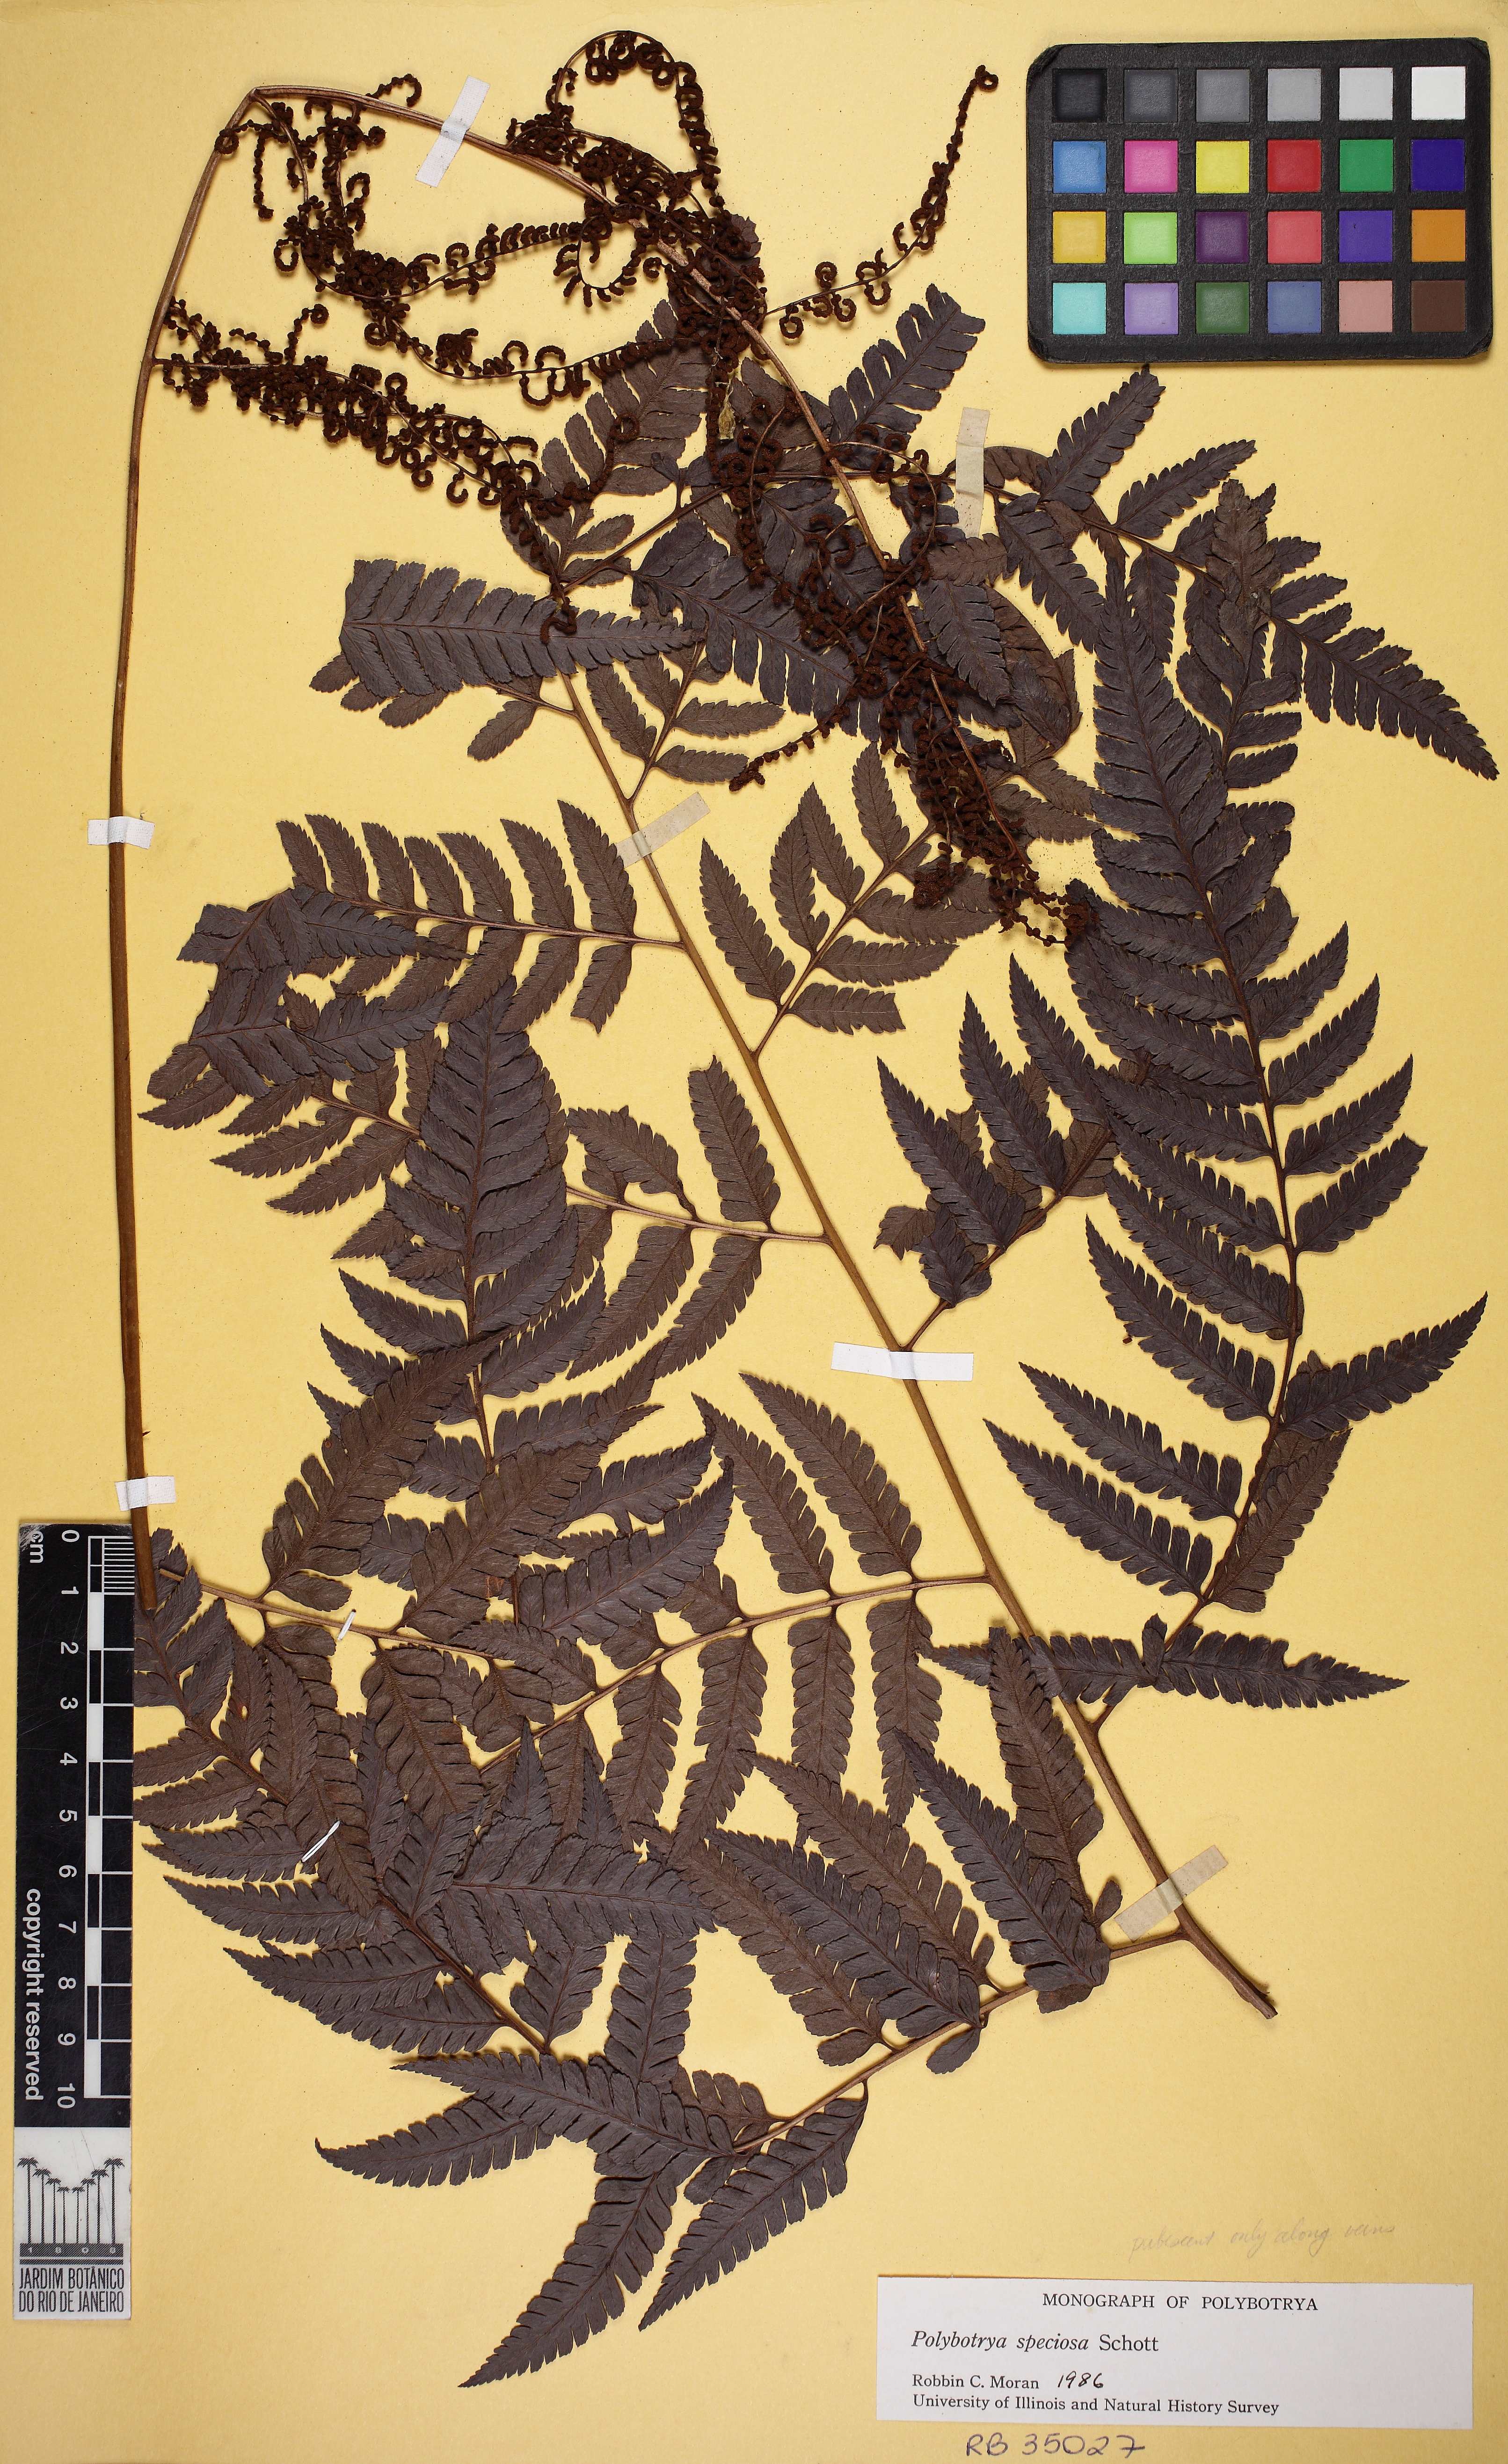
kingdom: Plantae
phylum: Tracheophyta
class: Polypodiopsida
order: Polypodiales
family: Dryopteridaceae
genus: Polybotrya
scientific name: Polybotrya pilosa
